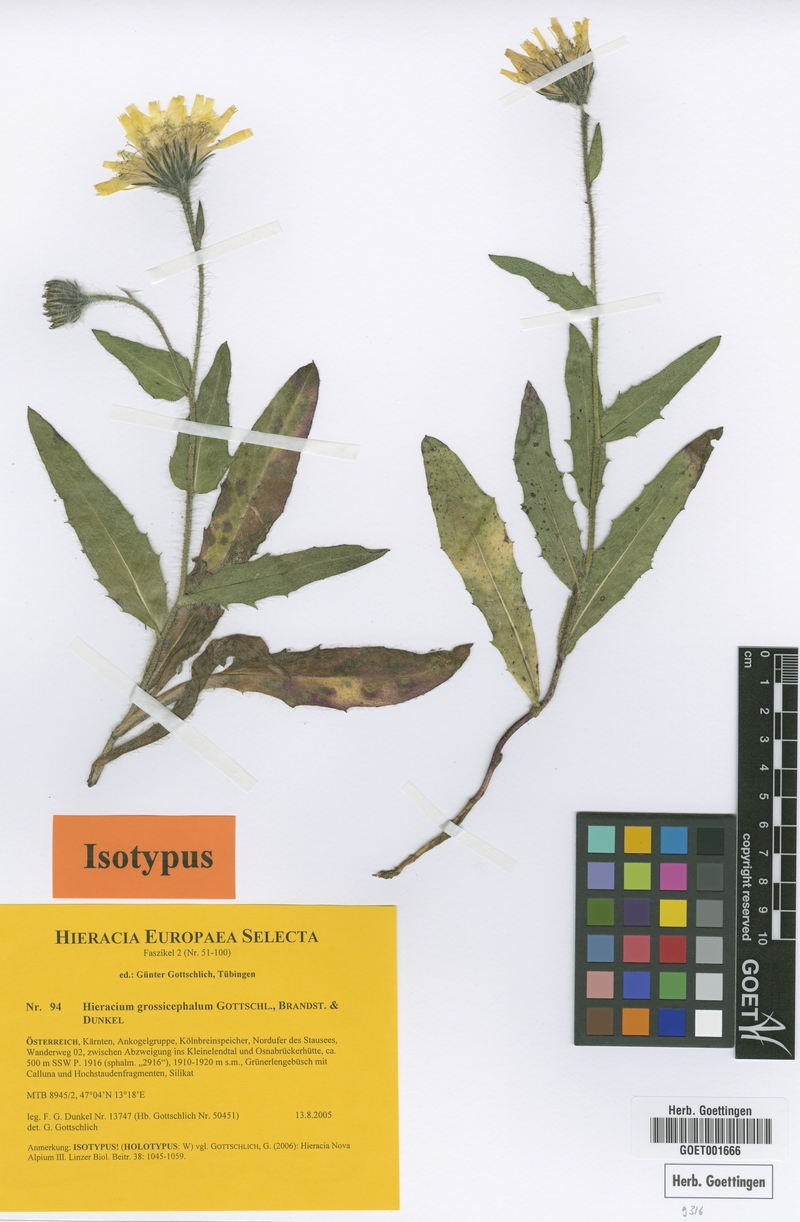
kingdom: Plantae
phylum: Tracheophyta
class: Magnoliopsida
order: Asterales
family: Asteraceae
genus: Hieracium
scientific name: Hieracium grossicephalum
